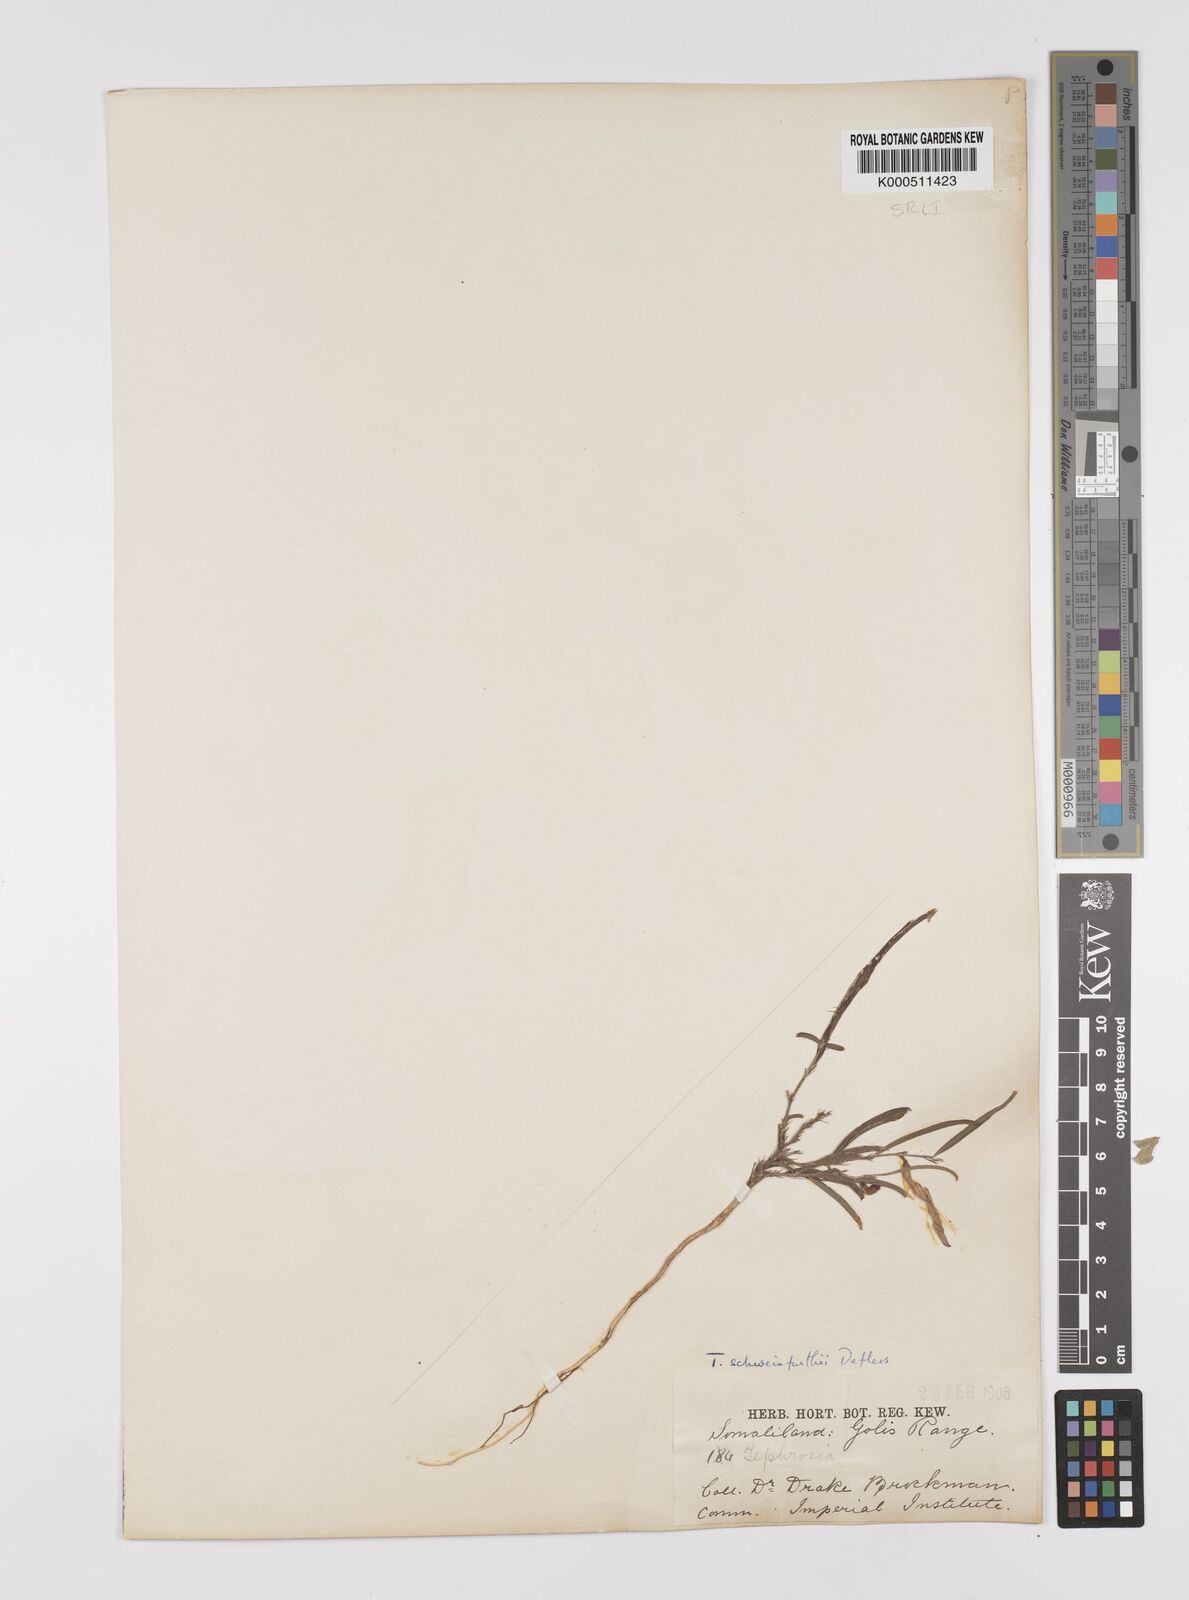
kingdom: Plantae
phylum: Tracheophyta
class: Magnoliopsida
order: Fabales
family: Fabaceae
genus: Tephrosia
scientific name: Tephrosia heterophylla
